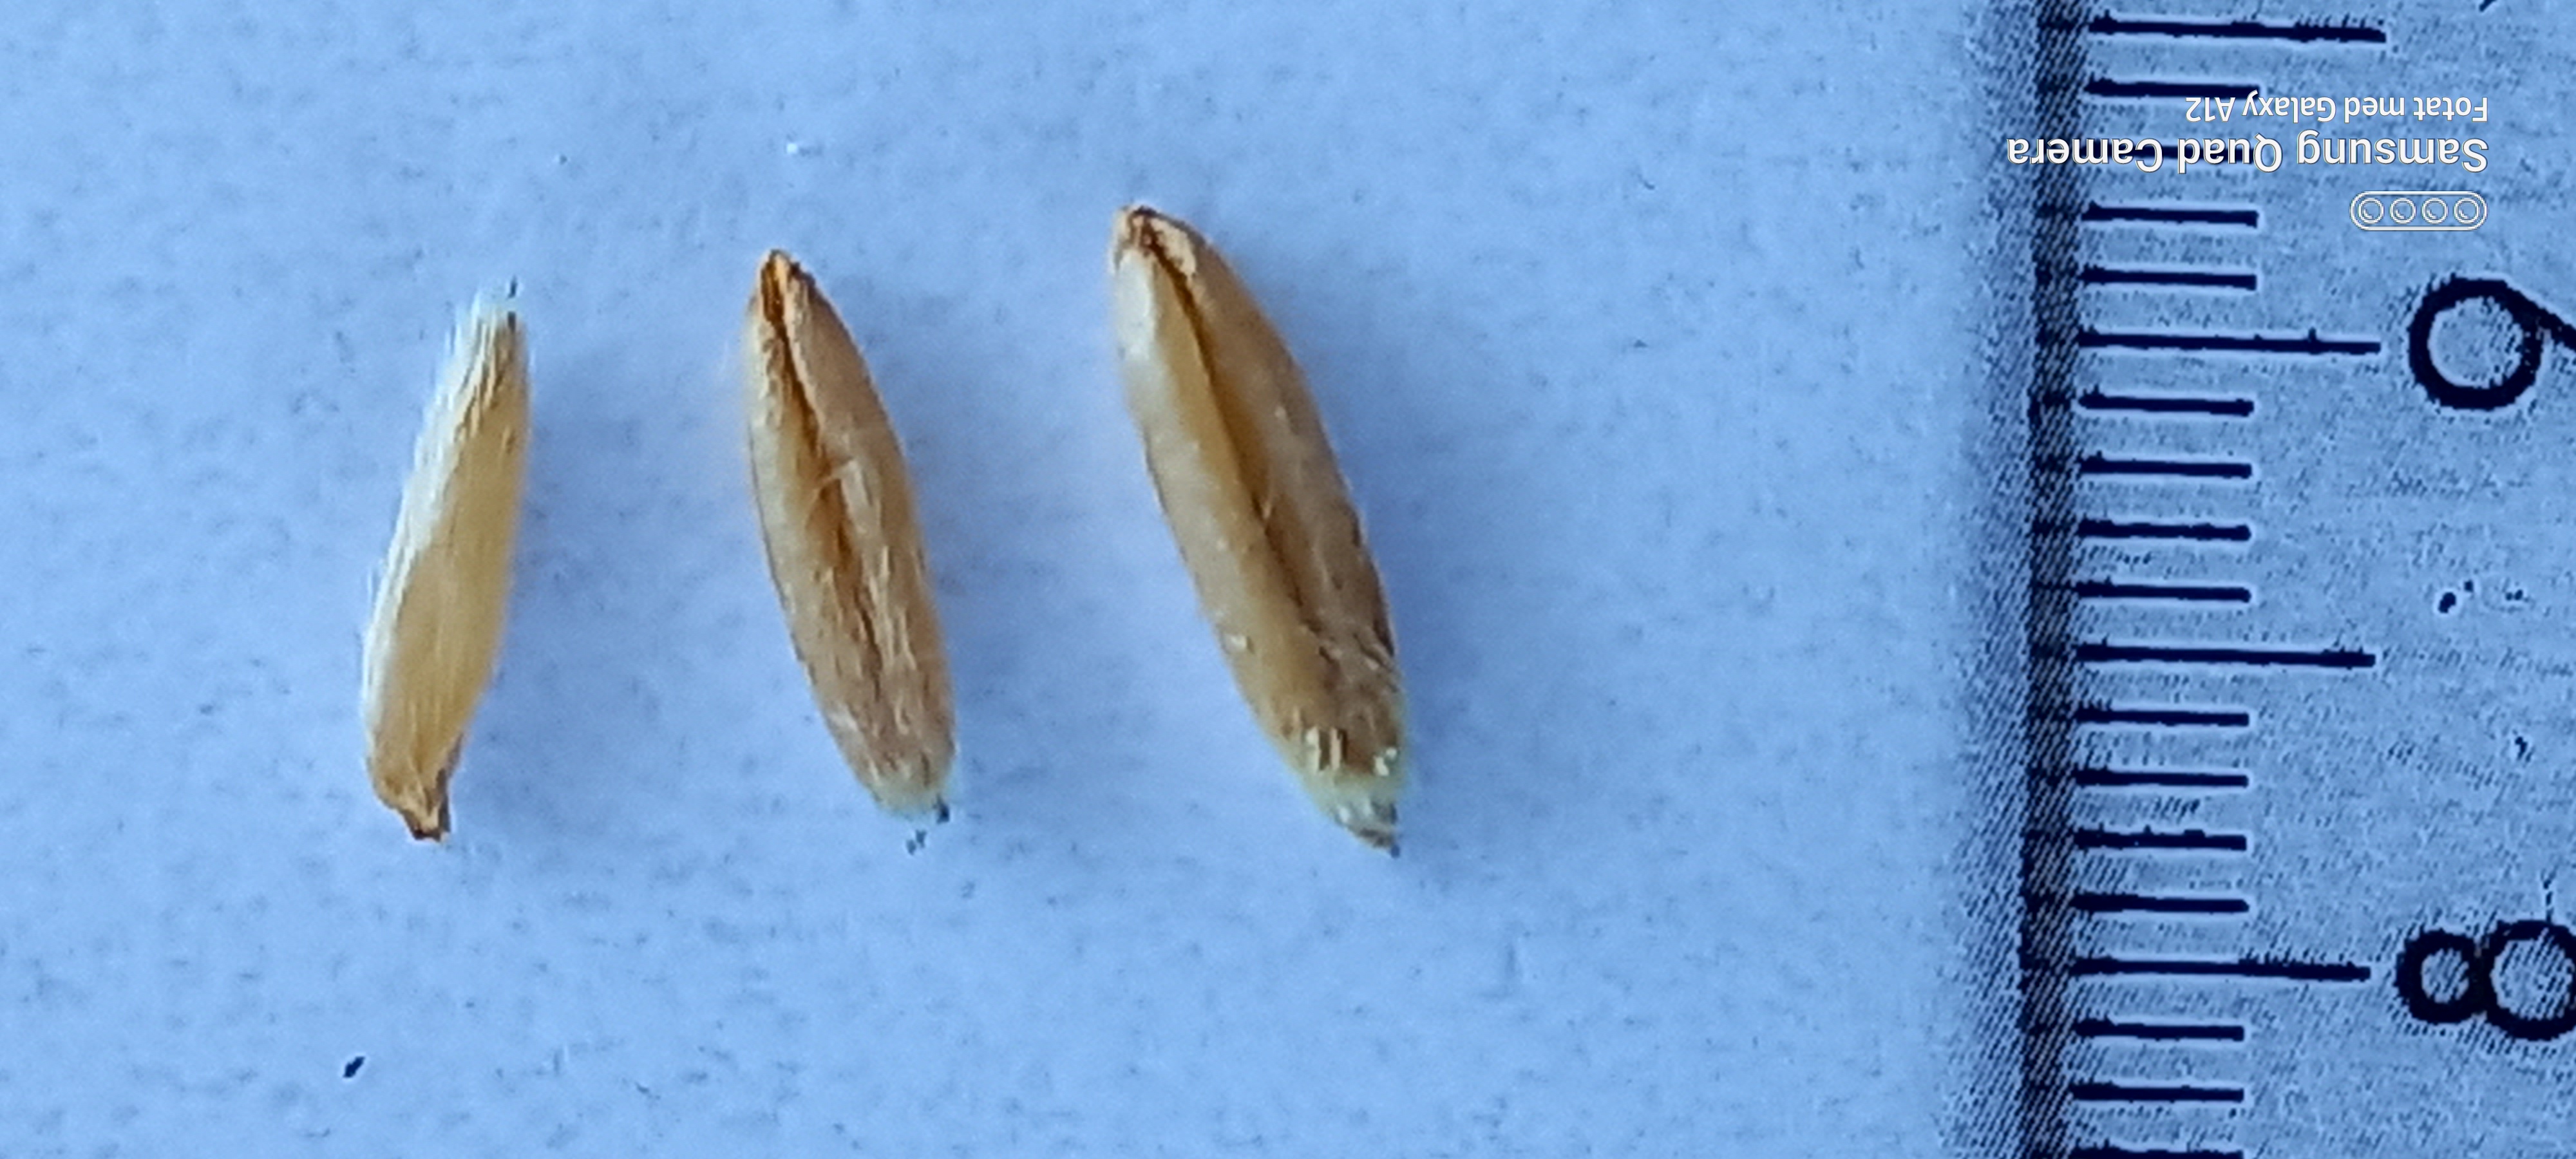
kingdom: Plantae
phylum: Tracheophyta
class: Liliopsida
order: Poales
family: Poaceae
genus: Avena
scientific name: Avena sativa
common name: Oat
